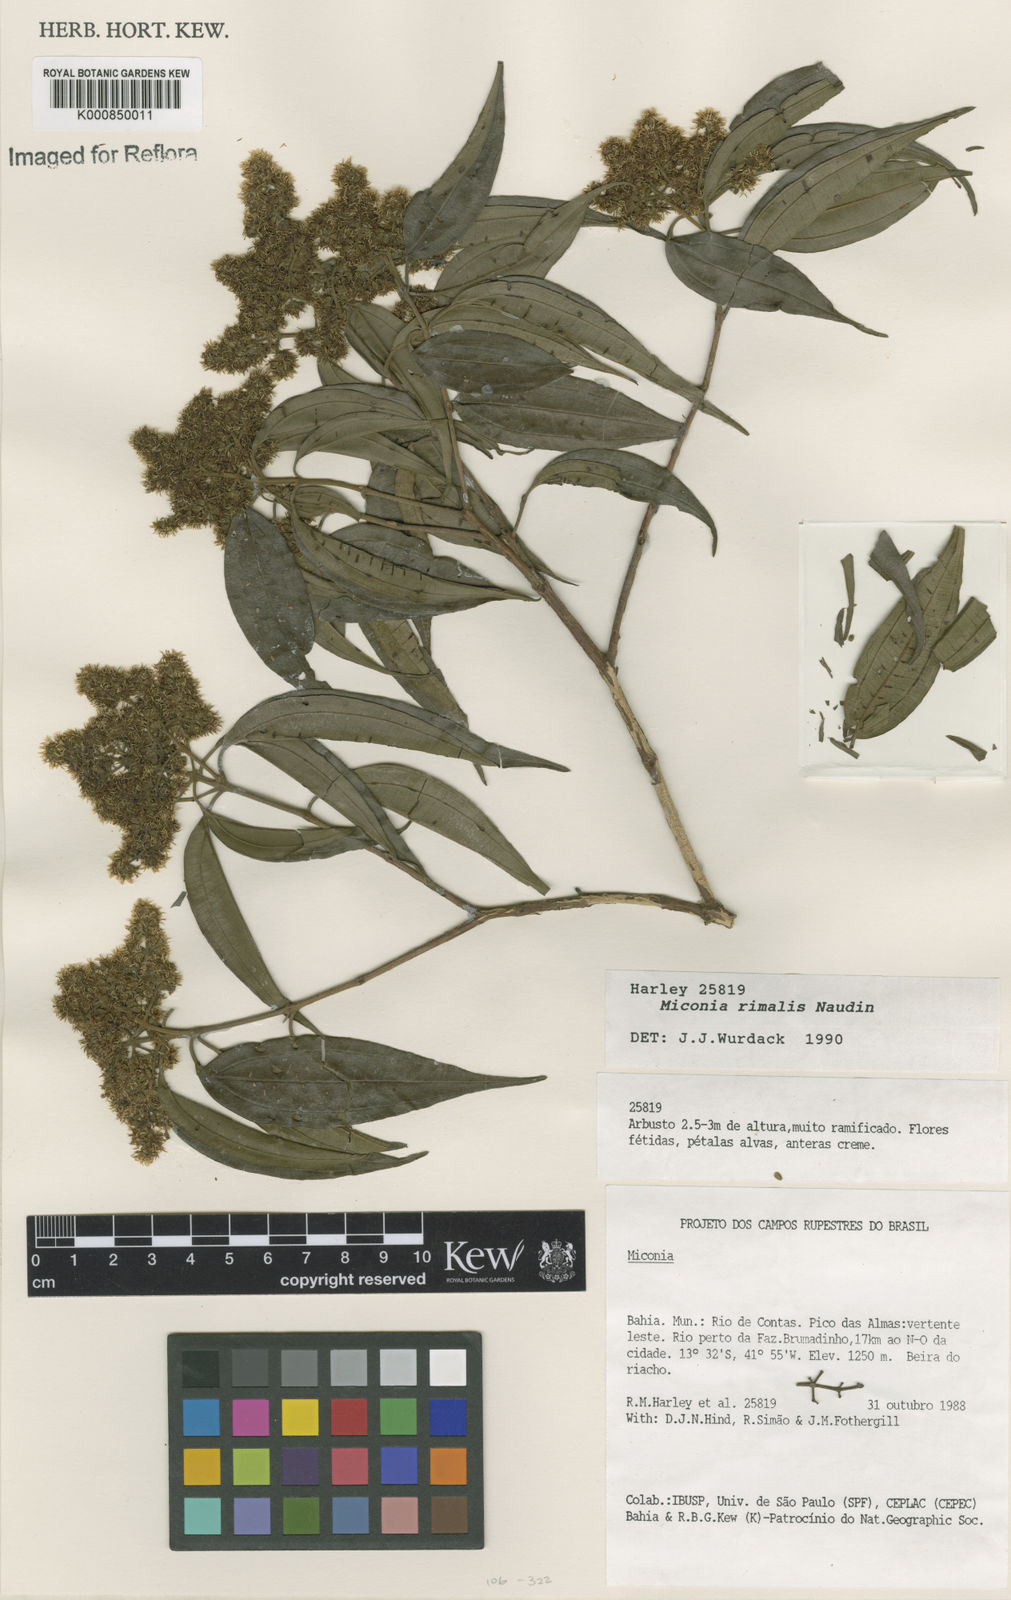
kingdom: Plantae
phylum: Tracheophyta
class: Magnoliopsida
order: Myrtales
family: Melastomataceae
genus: Miconia
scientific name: Miconia
